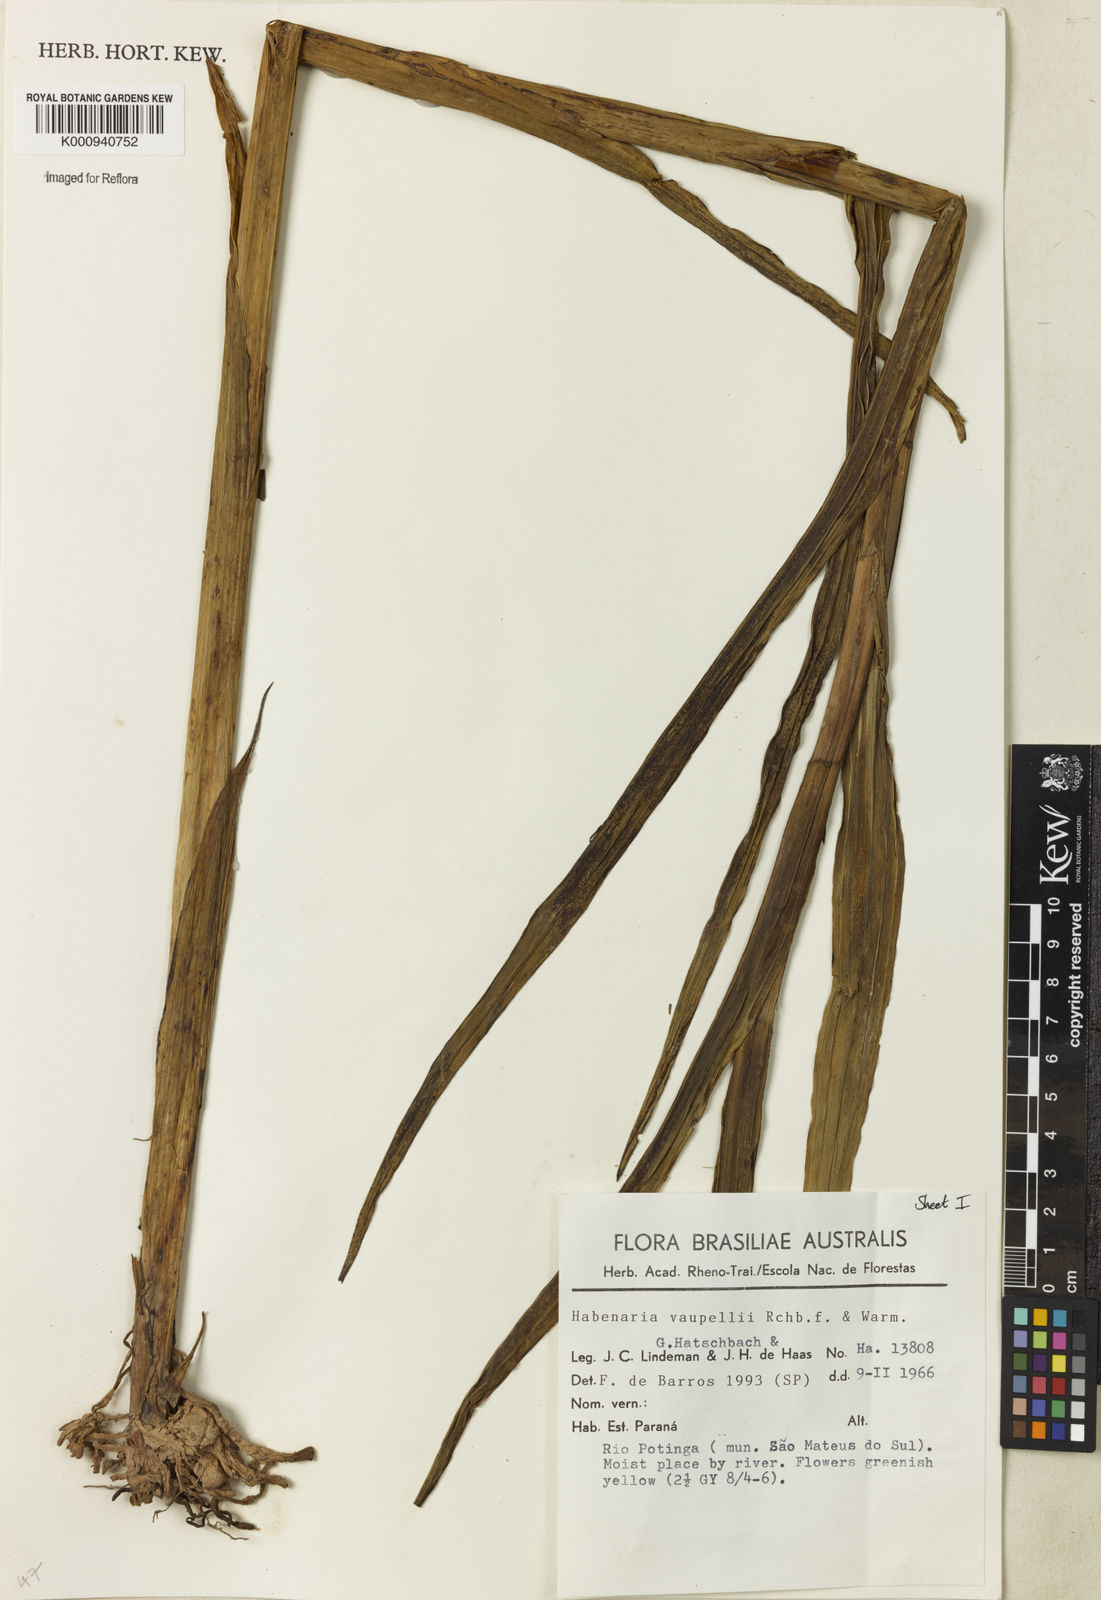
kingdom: Plantae
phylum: Tracheophyta
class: Liliopsida
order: Asparagales
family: Orchidaceae
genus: Habenaria
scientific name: Habenaria johannensis
